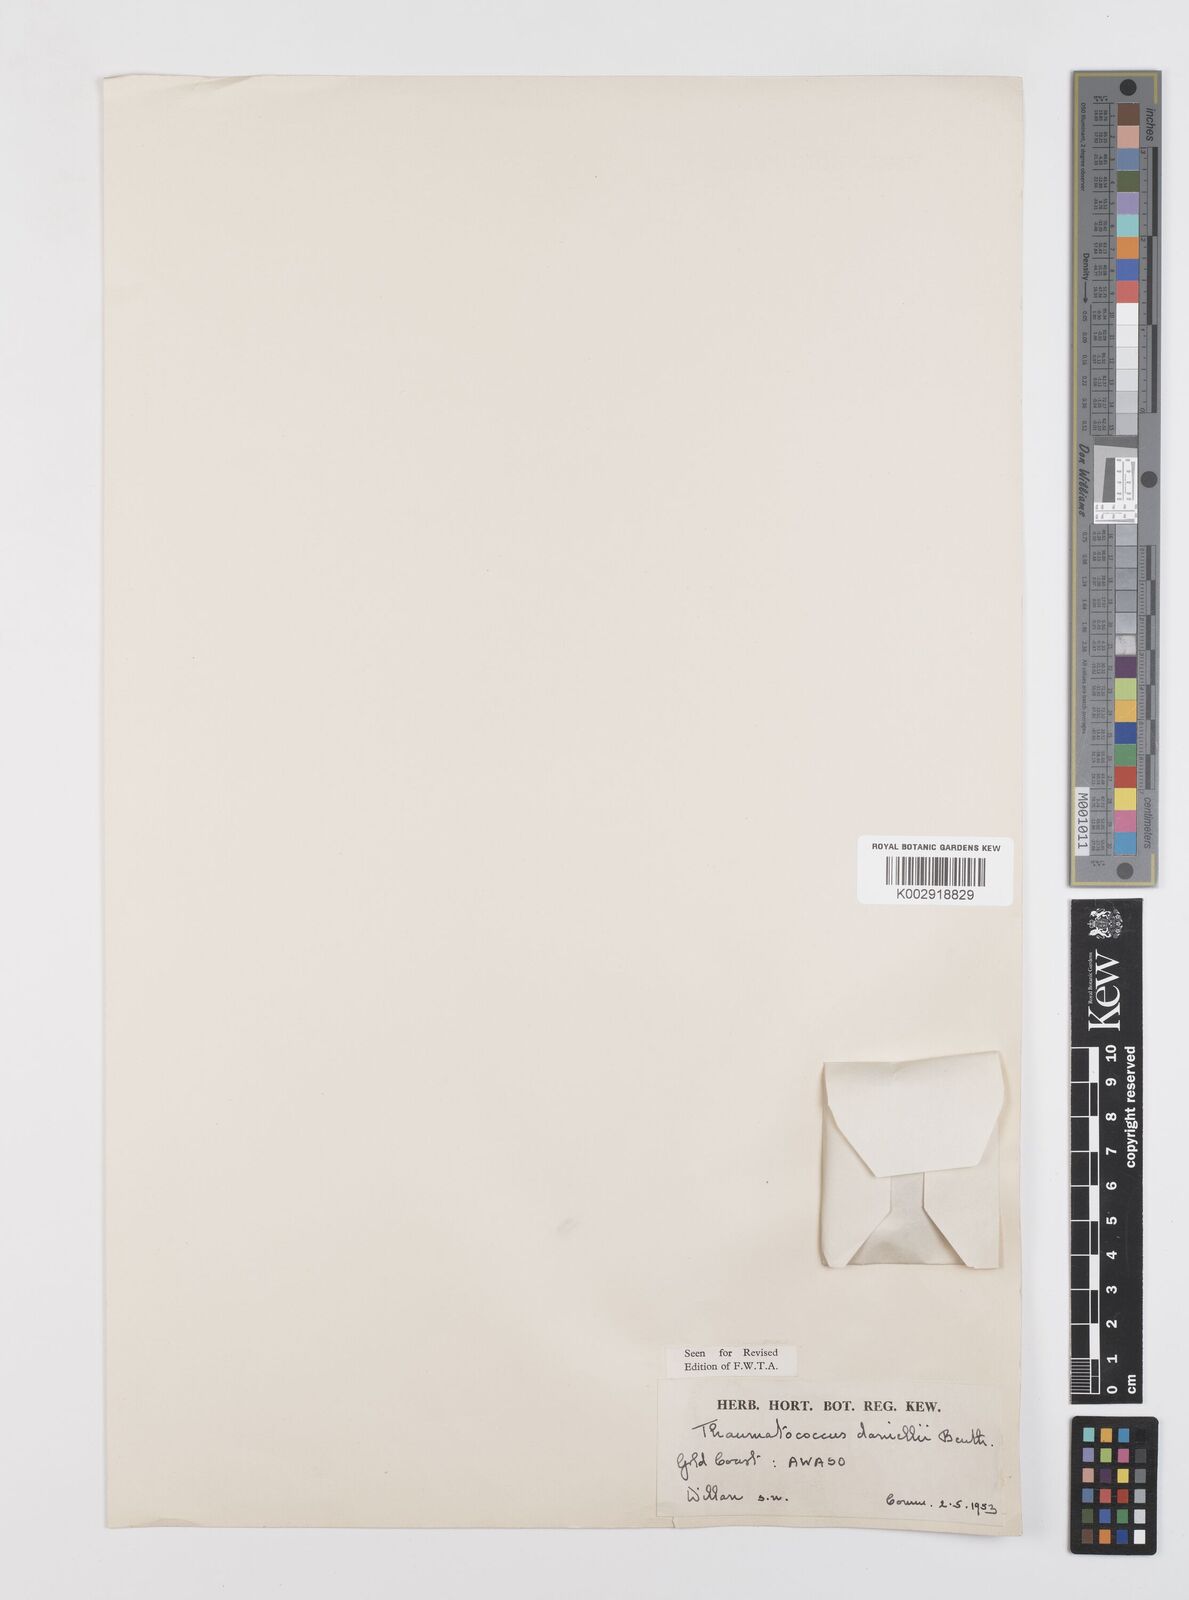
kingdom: Plantae
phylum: Tracheophyta
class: Liliopsida
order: Zingiberales
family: Marantaceae
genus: Thaumatococcus
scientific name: Thaumatococcus daniellii
